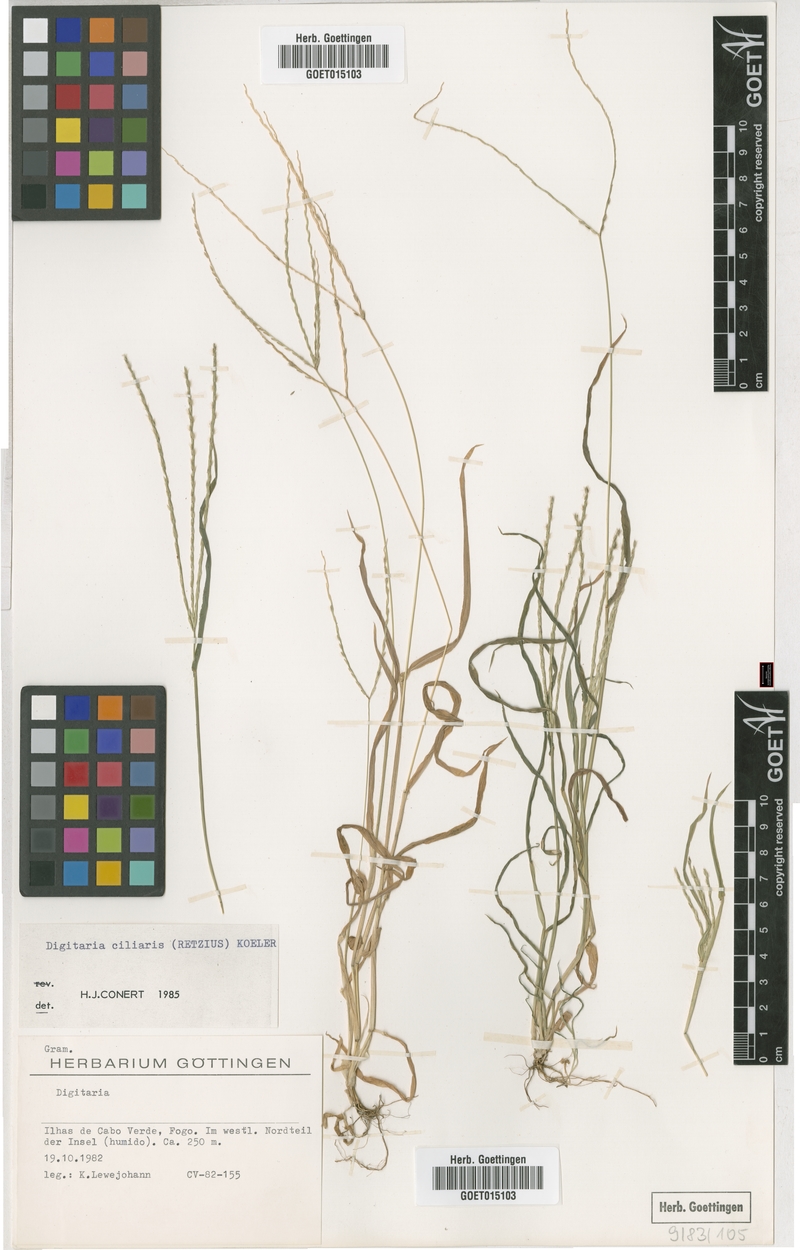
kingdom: Plantae
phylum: Tracheophyta
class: Liliopsida
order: Poales
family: Poaceae
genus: Digitaria
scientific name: Digitaria ciliaris
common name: Tropical finger-grass
